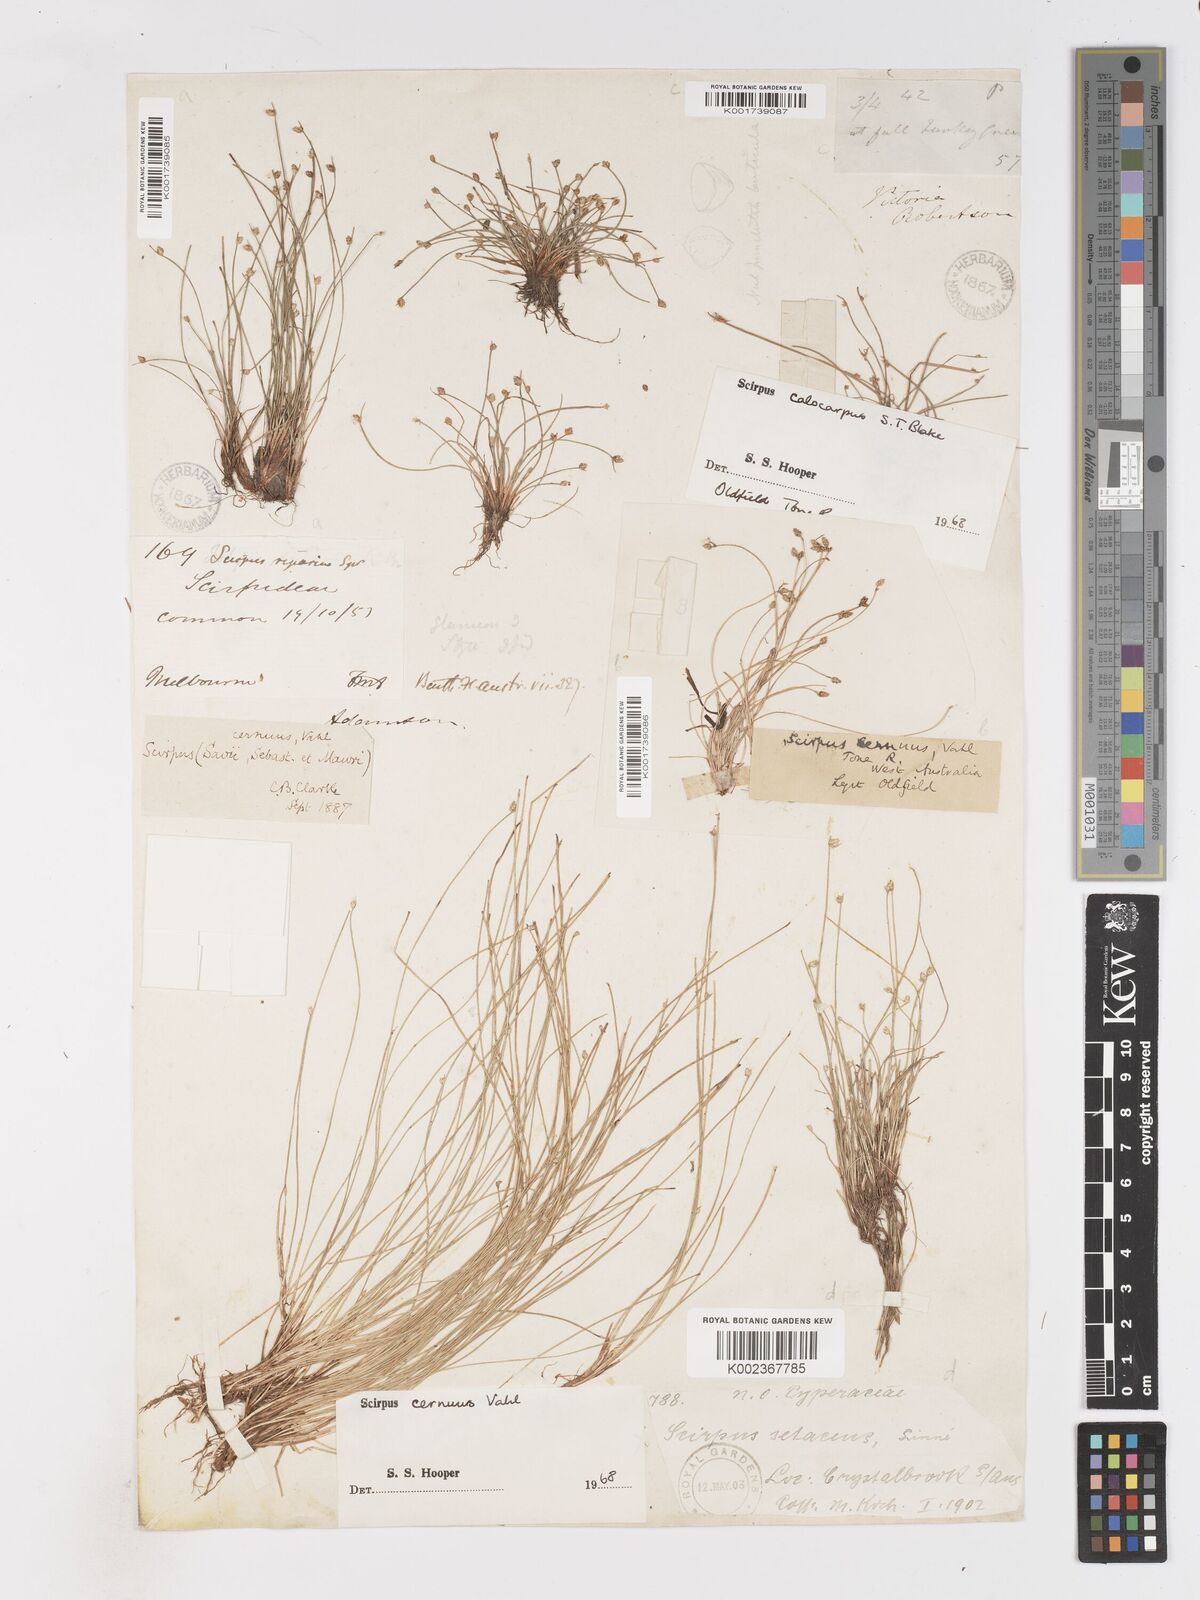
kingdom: Plantae
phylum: Tracheophyta
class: Liliopsida
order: Poales
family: Cyperaceae
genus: Isolepis
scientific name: Isolepis cernua
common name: Slender club-rush
